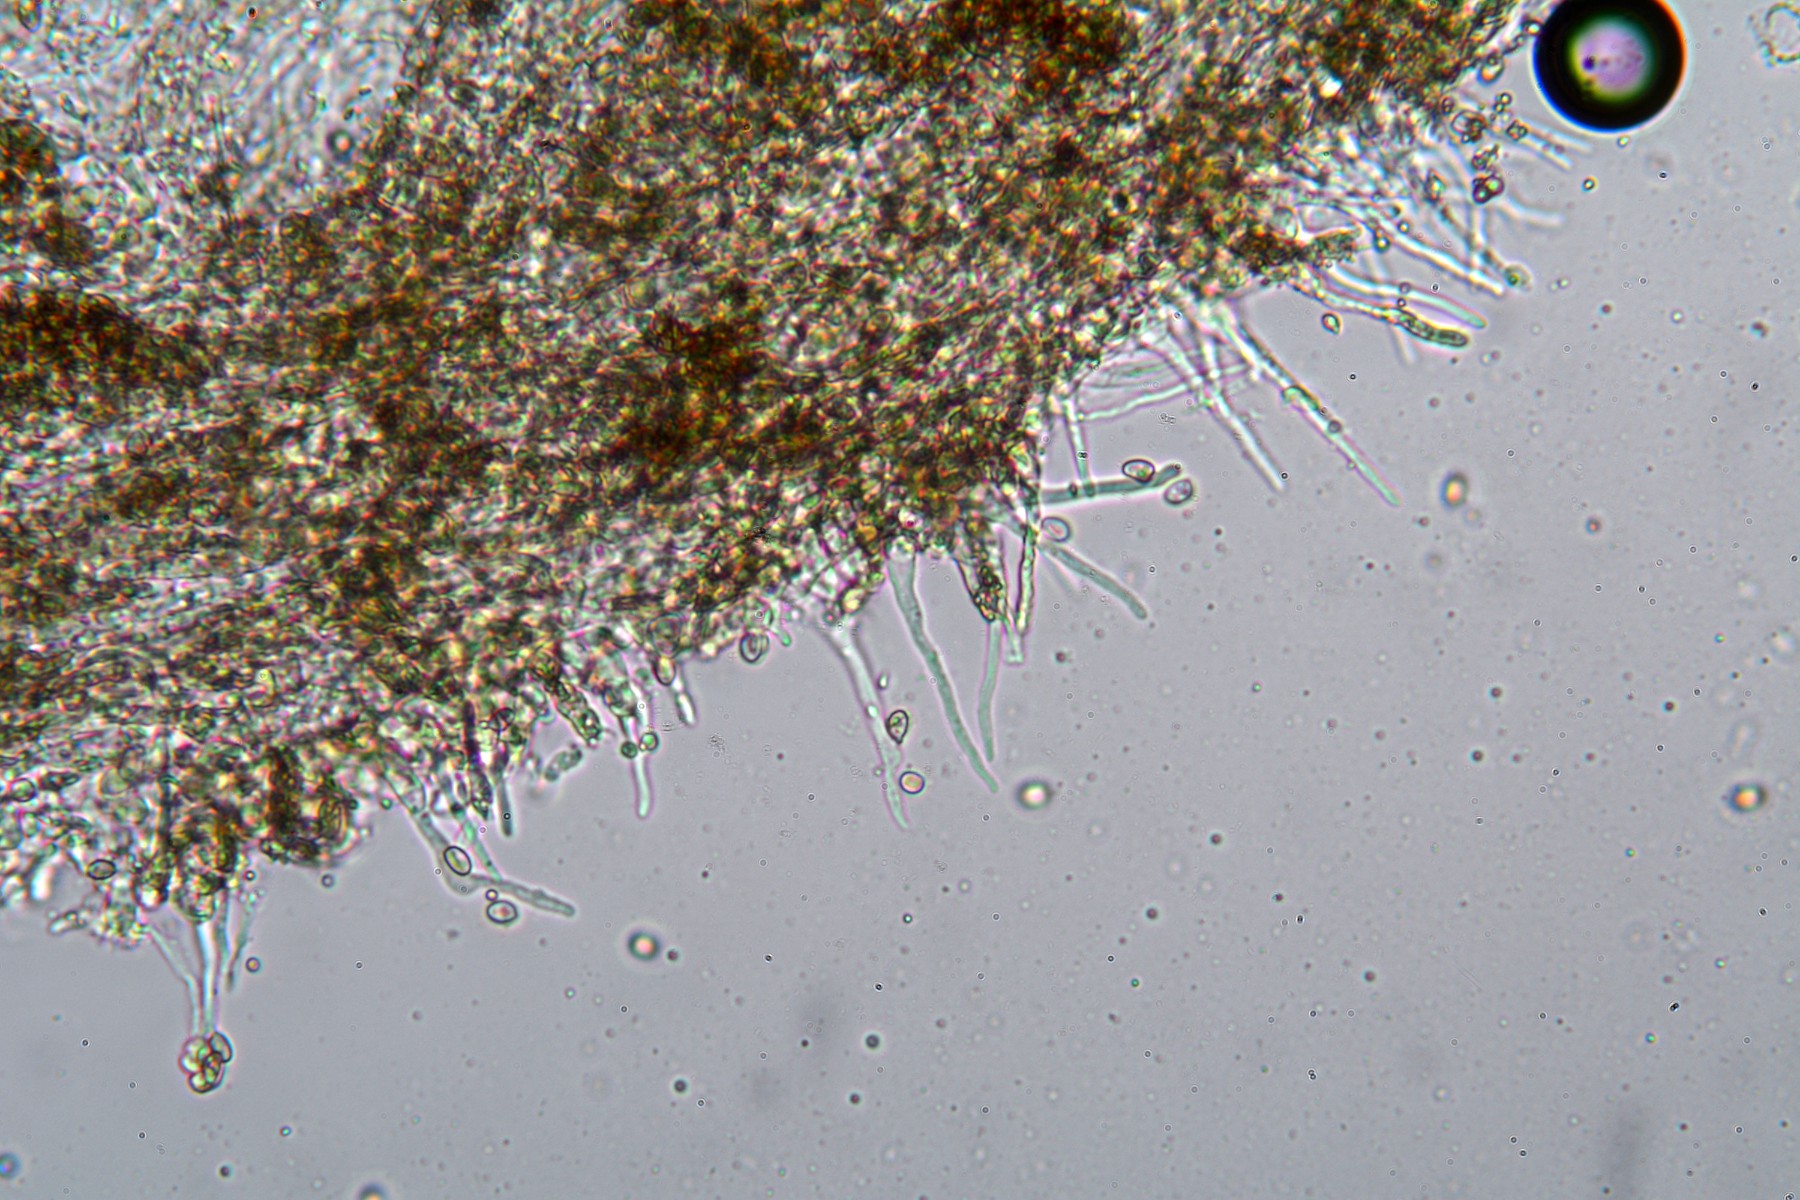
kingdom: Fungi
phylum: Basidiomycota
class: Agaricomycetes
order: Agaricales
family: Strophariaceae
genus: Pyrrhulomyces
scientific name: Pyrrhulomyces astragalinus
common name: safran-skælhat
